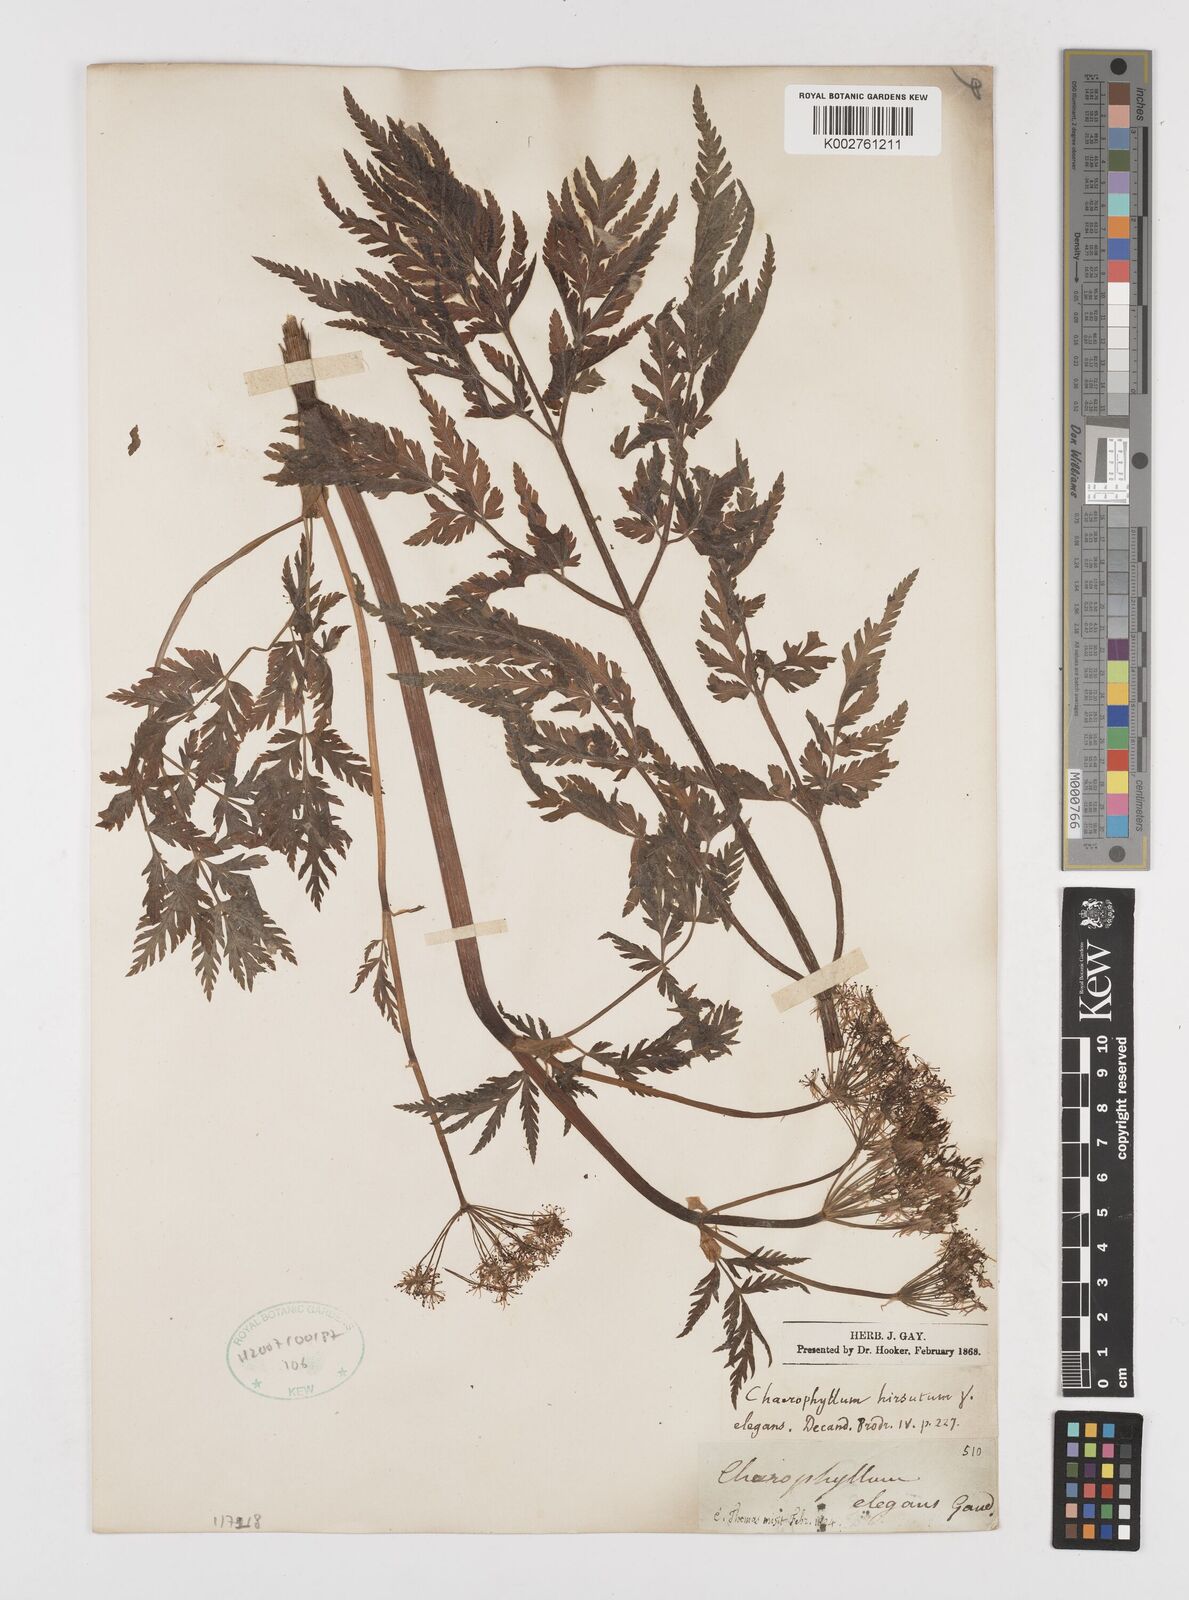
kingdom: Plantae
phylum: Tracheophyta
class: Magnoliopsida
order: Apiales
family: Apiaceae
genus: Chaerophyllum
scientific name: Chaerophyllum elegans
